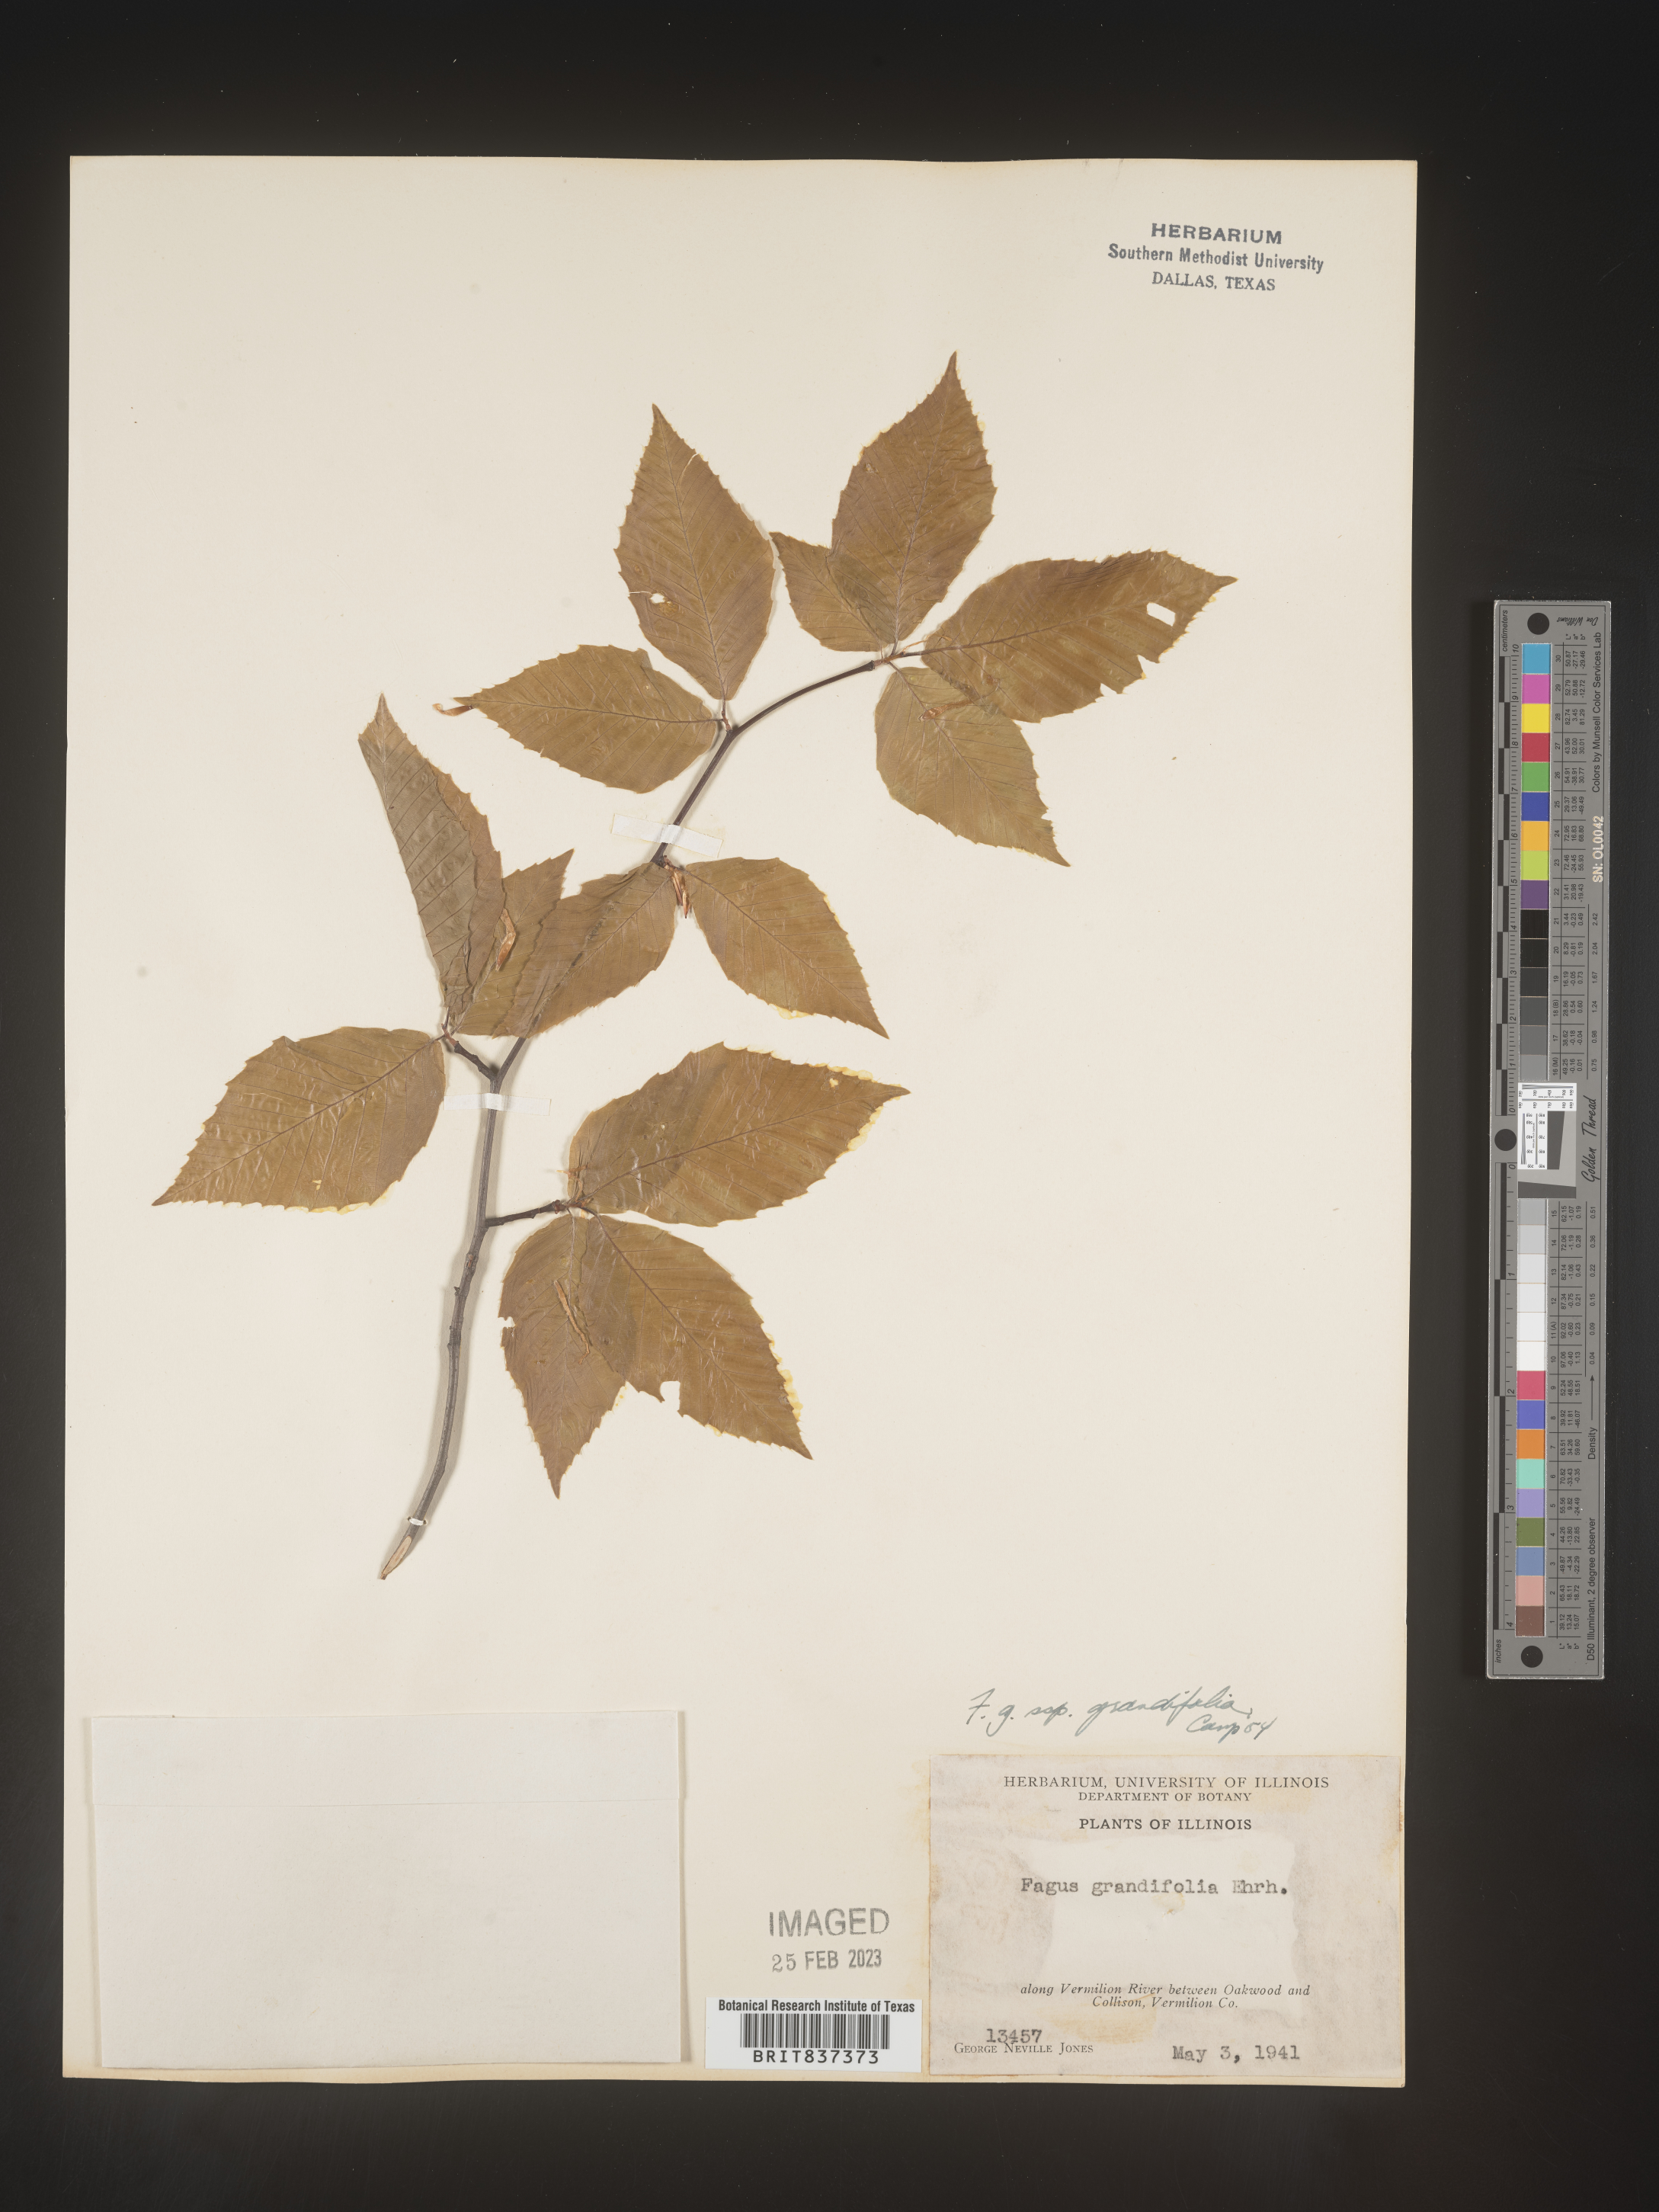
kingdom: Plantae
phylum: Tracheophyta
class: Magnoliopsida
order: Fagales
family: Fagaceae
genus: Fagus
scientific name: Fagus grandifolia
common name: American beech
